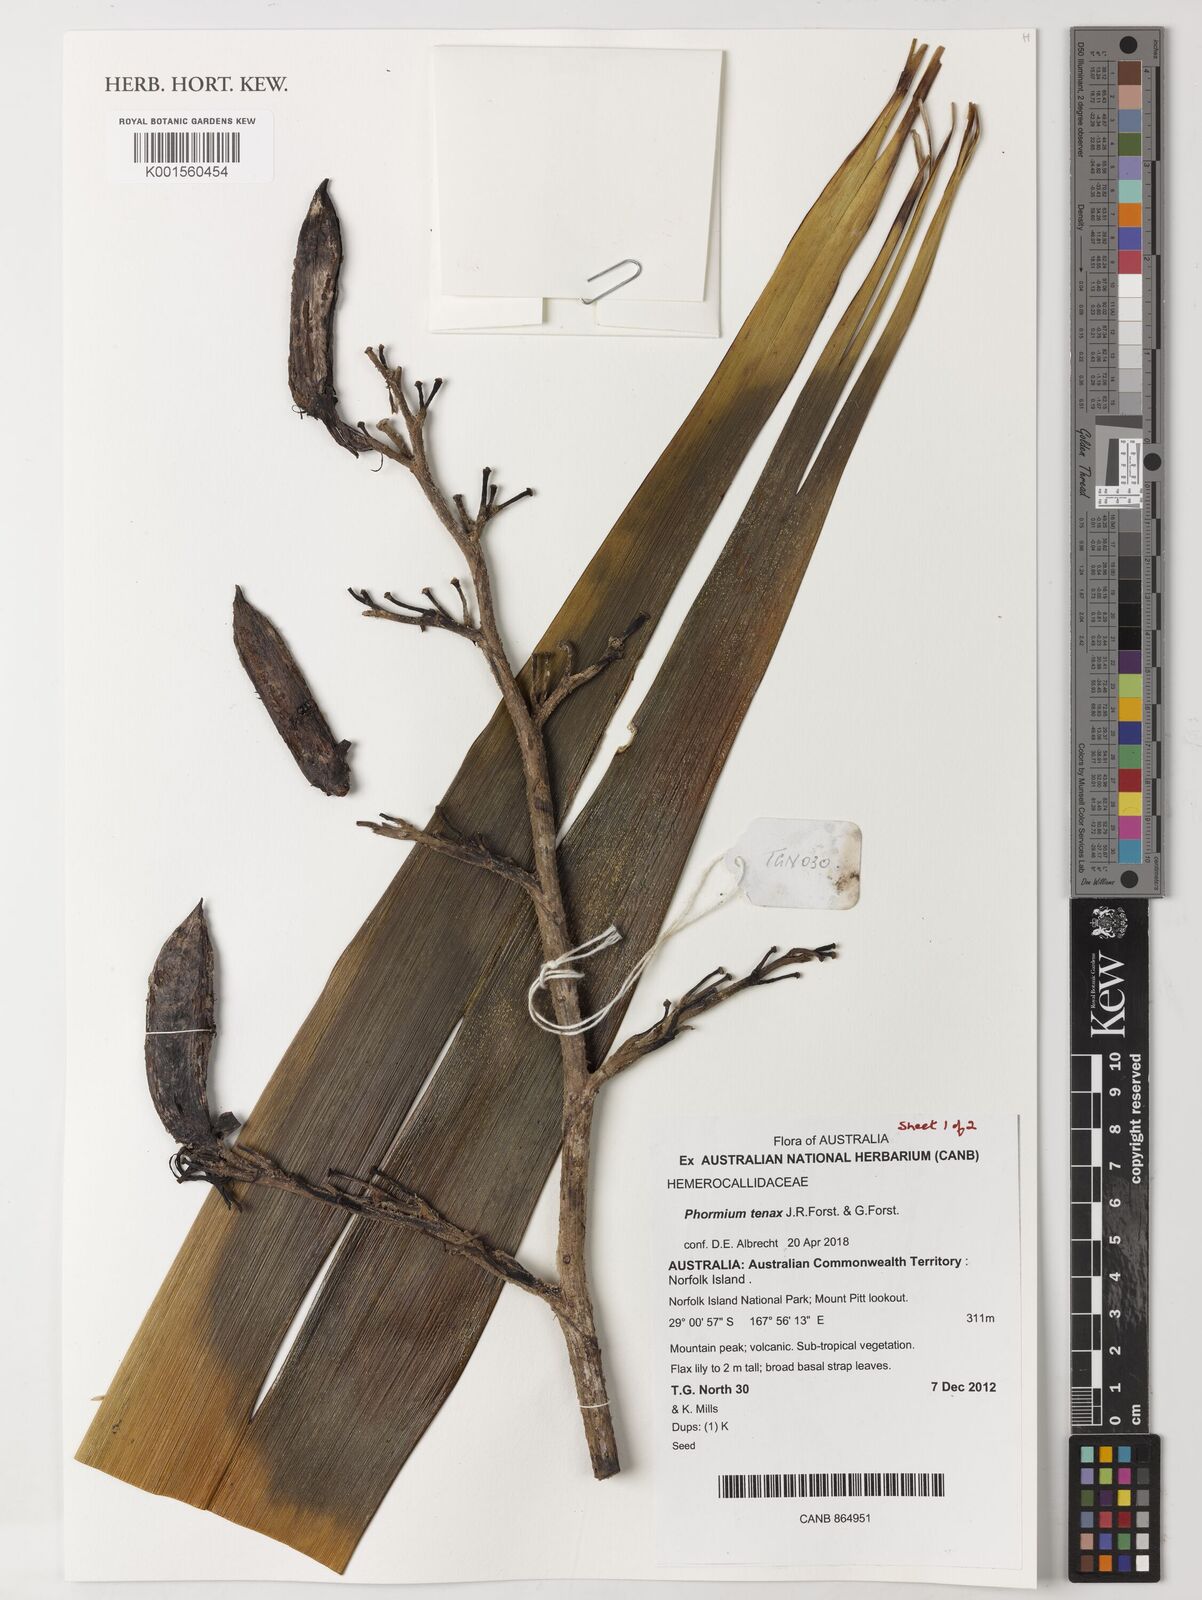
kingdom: Plantae
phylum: Tracheophyta
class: Liliopsida
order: Asparagales
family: Asphodelaceae
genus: Phormium
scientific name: Phormium tenax
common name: New zealand flax
